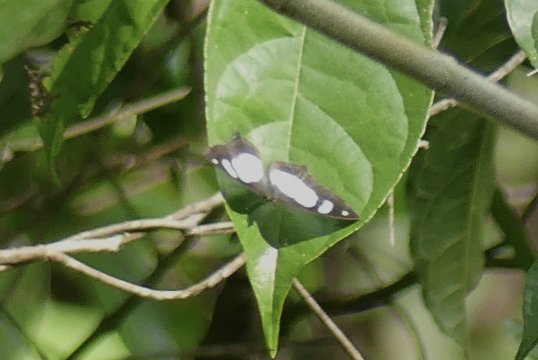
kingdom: Animalia
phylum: Arthropoda
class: Insecta
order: Lepidoptera
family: Riodinidae
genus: Thisbe
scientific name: Thisbe irenea
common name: Irenia Metalmark
